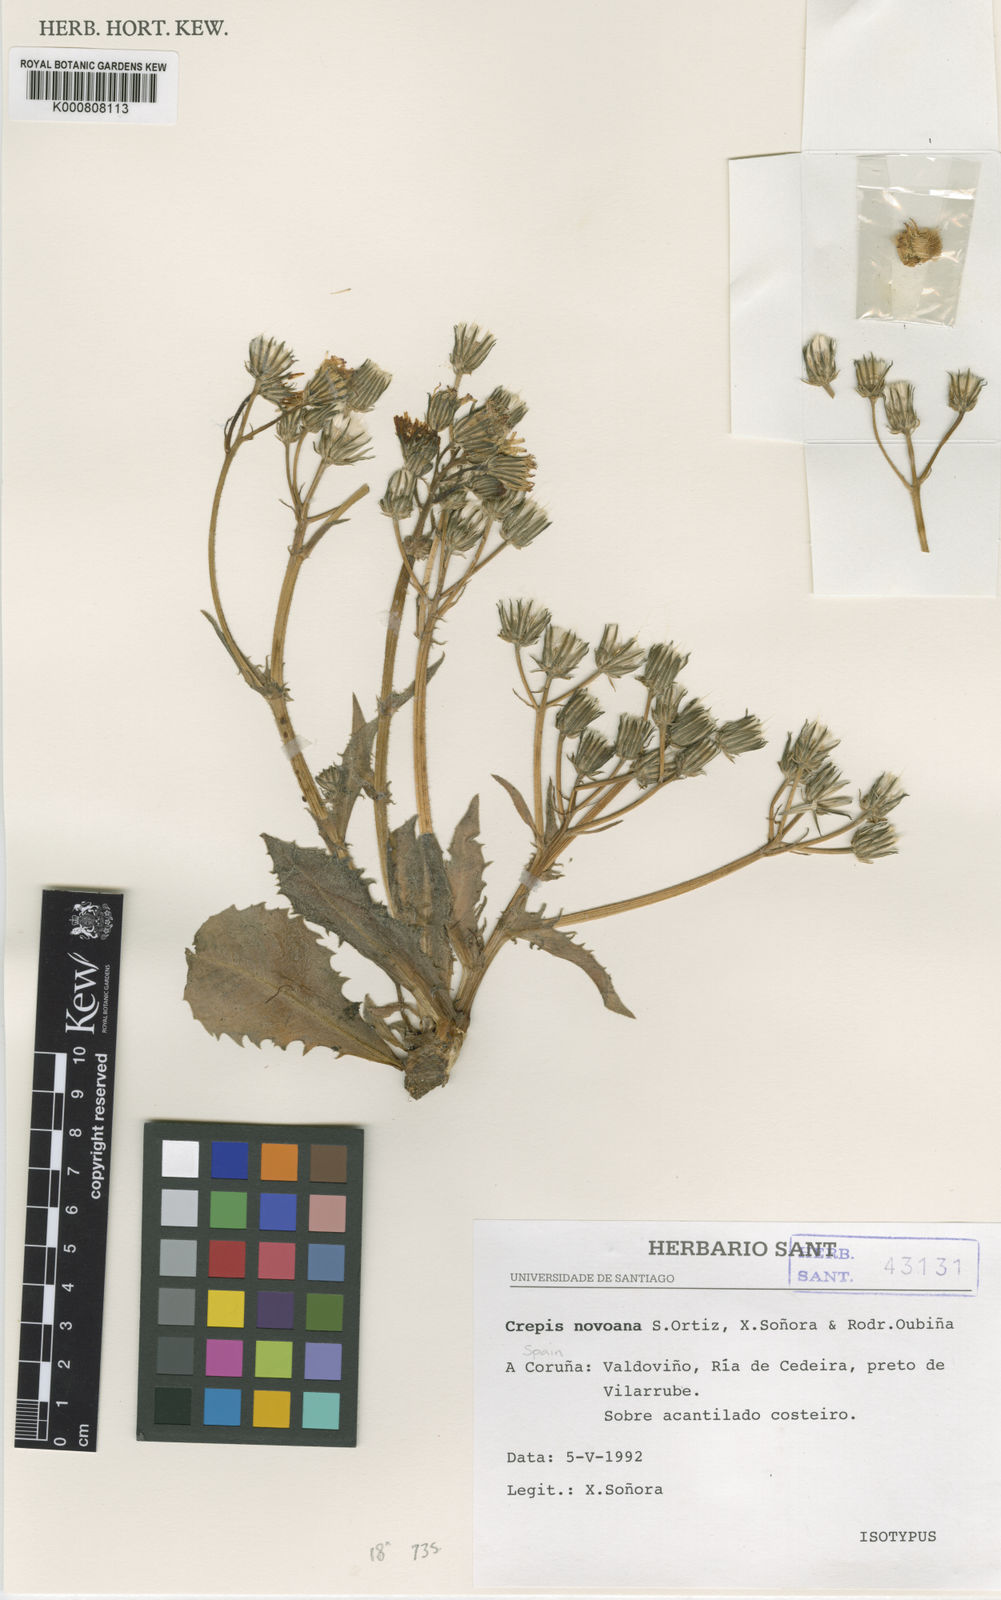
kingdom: Plantae
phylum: Tracheophyta
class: Magnoliopsida
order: Asterales
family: Asteraceae
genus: Crepis
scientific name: Crepis
